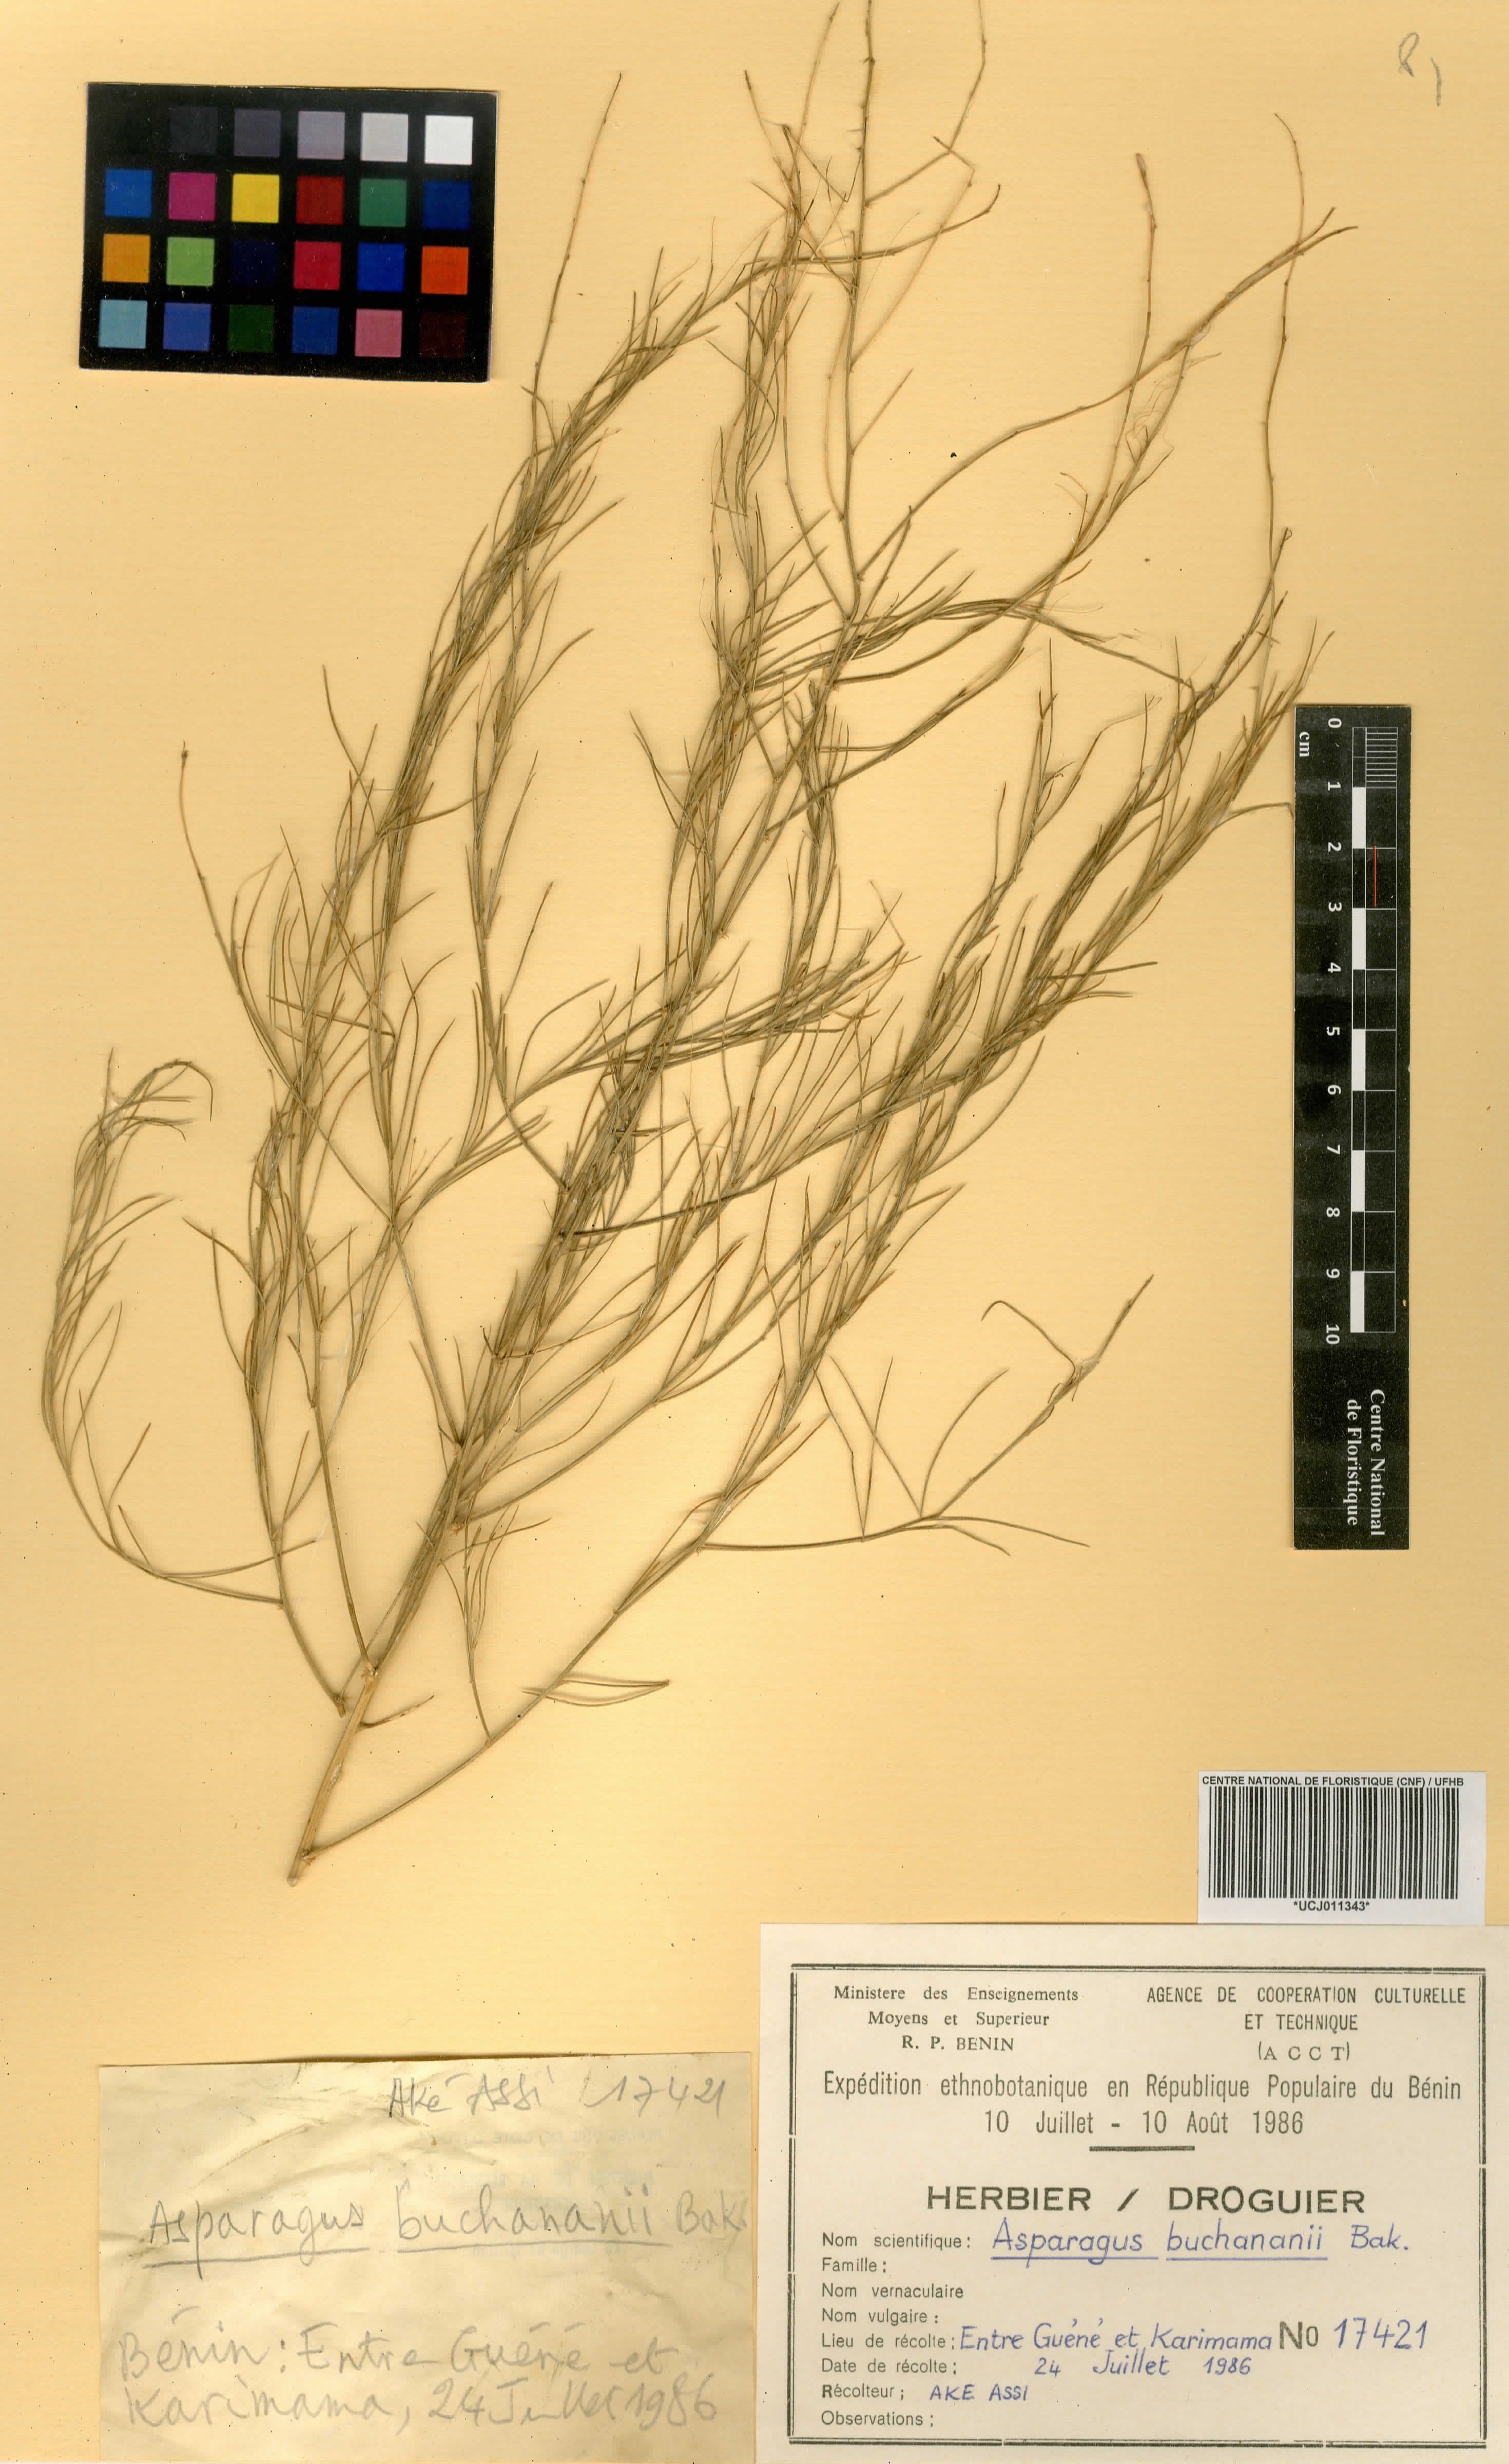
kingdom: Plantae
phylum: Tracheophyta
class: Liliopsida
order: Asparagales
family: Asparagaceae
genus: Asparagus
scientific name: Asparagus buchananii
